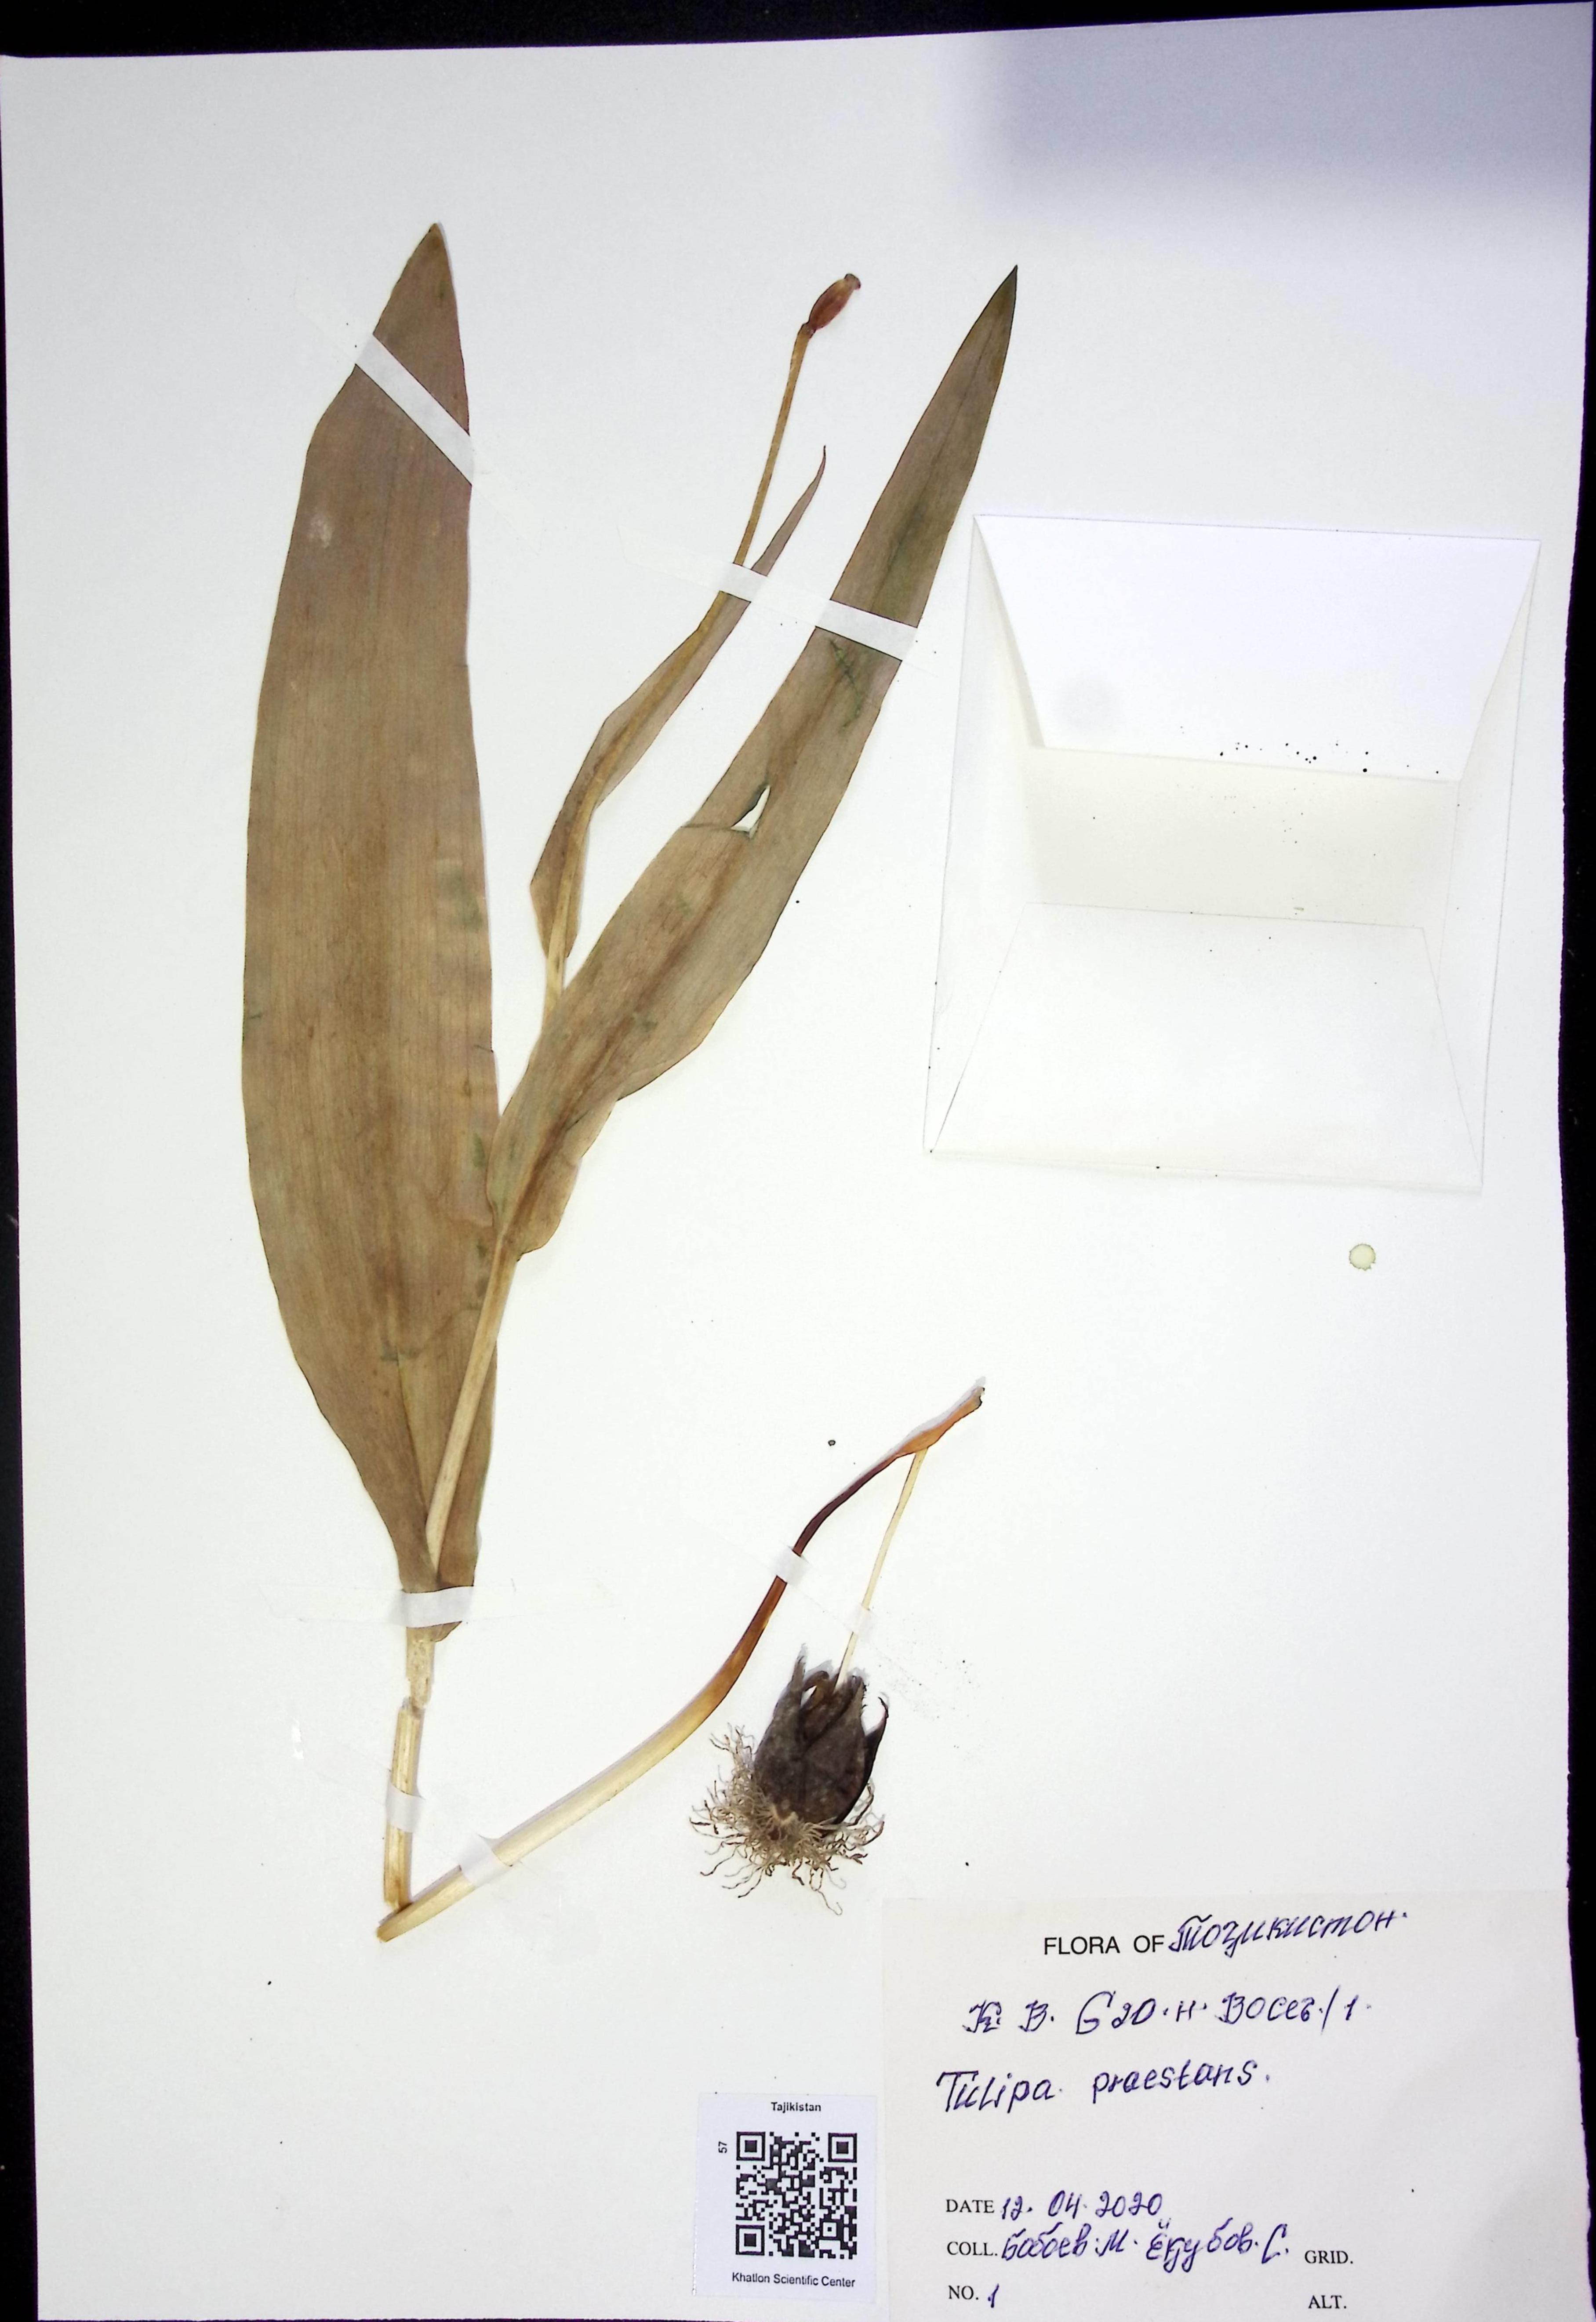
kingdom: Plantae
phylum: Tracheophyta
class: Liliopsida
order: Liliales
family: Liliaceae
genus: Tulipa
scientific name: Tulipa praestans
